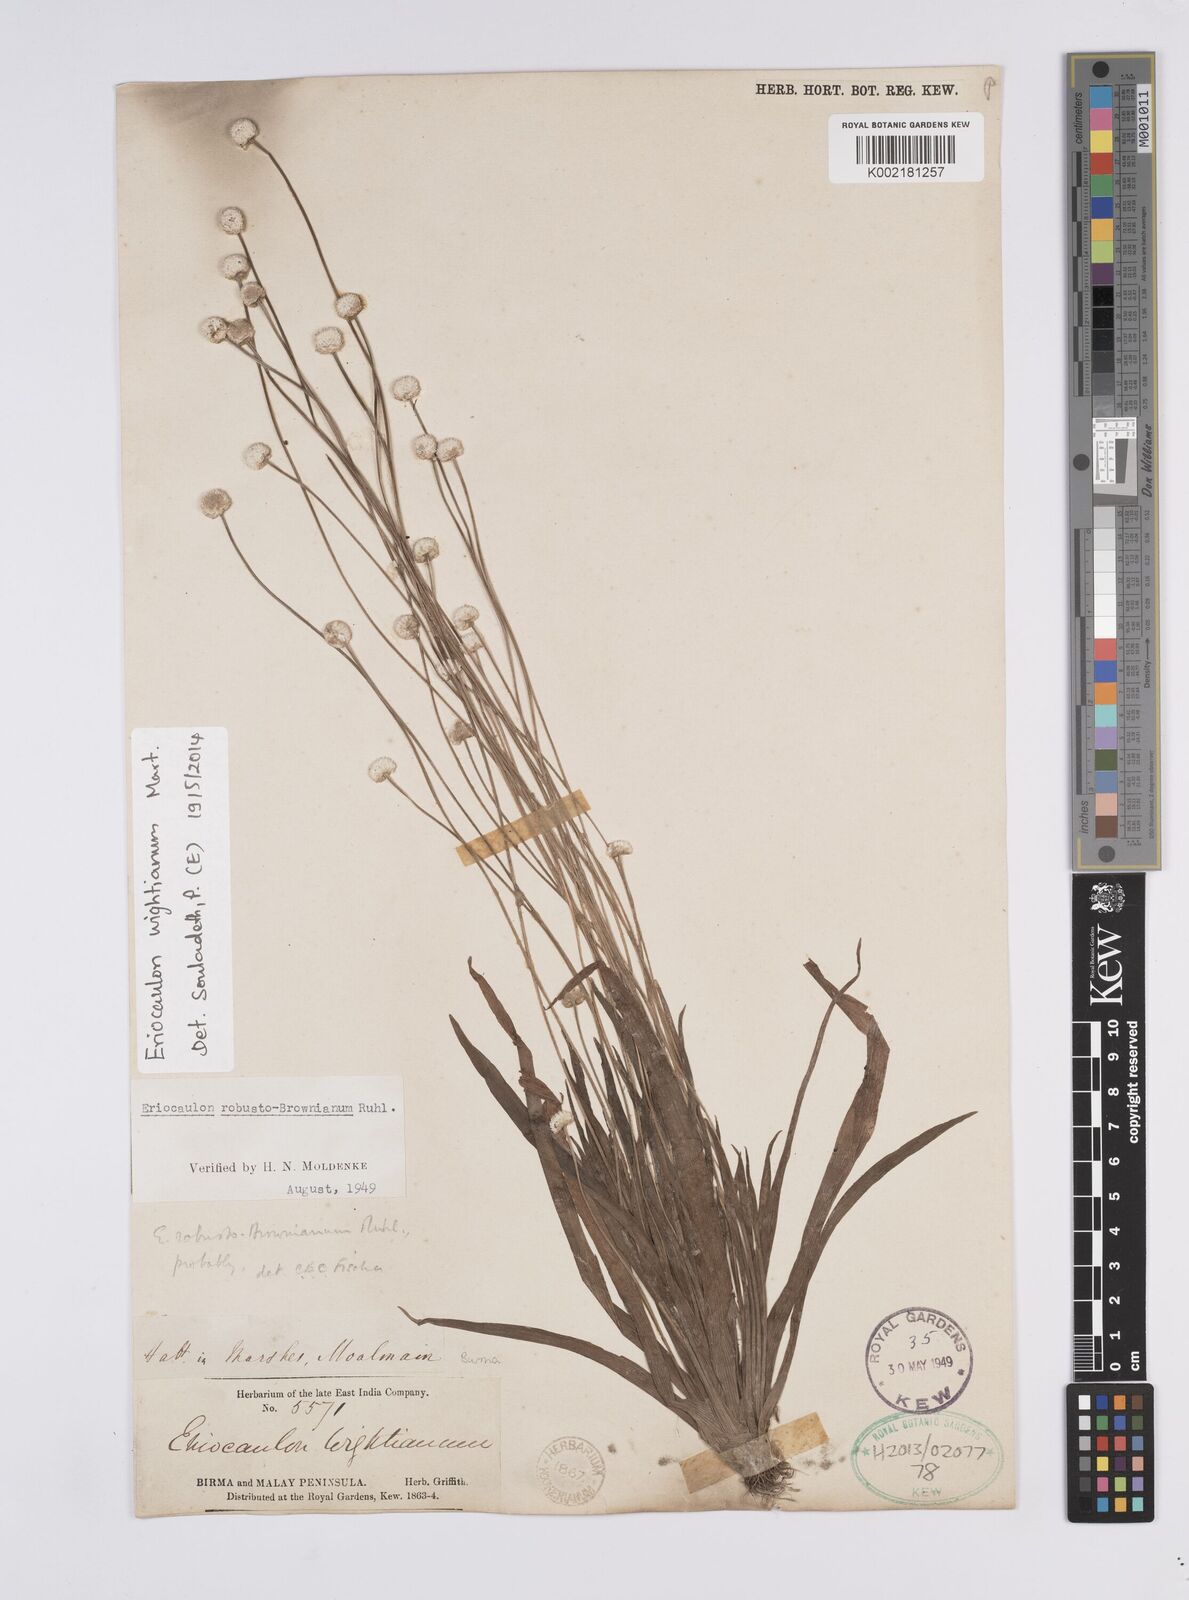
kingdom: Plantae
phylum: Tracheophyta
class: Liliopsida
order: Poales
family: Eriocaulaceae
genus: Eriocaulon
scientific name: Eriocaulon wightianum
